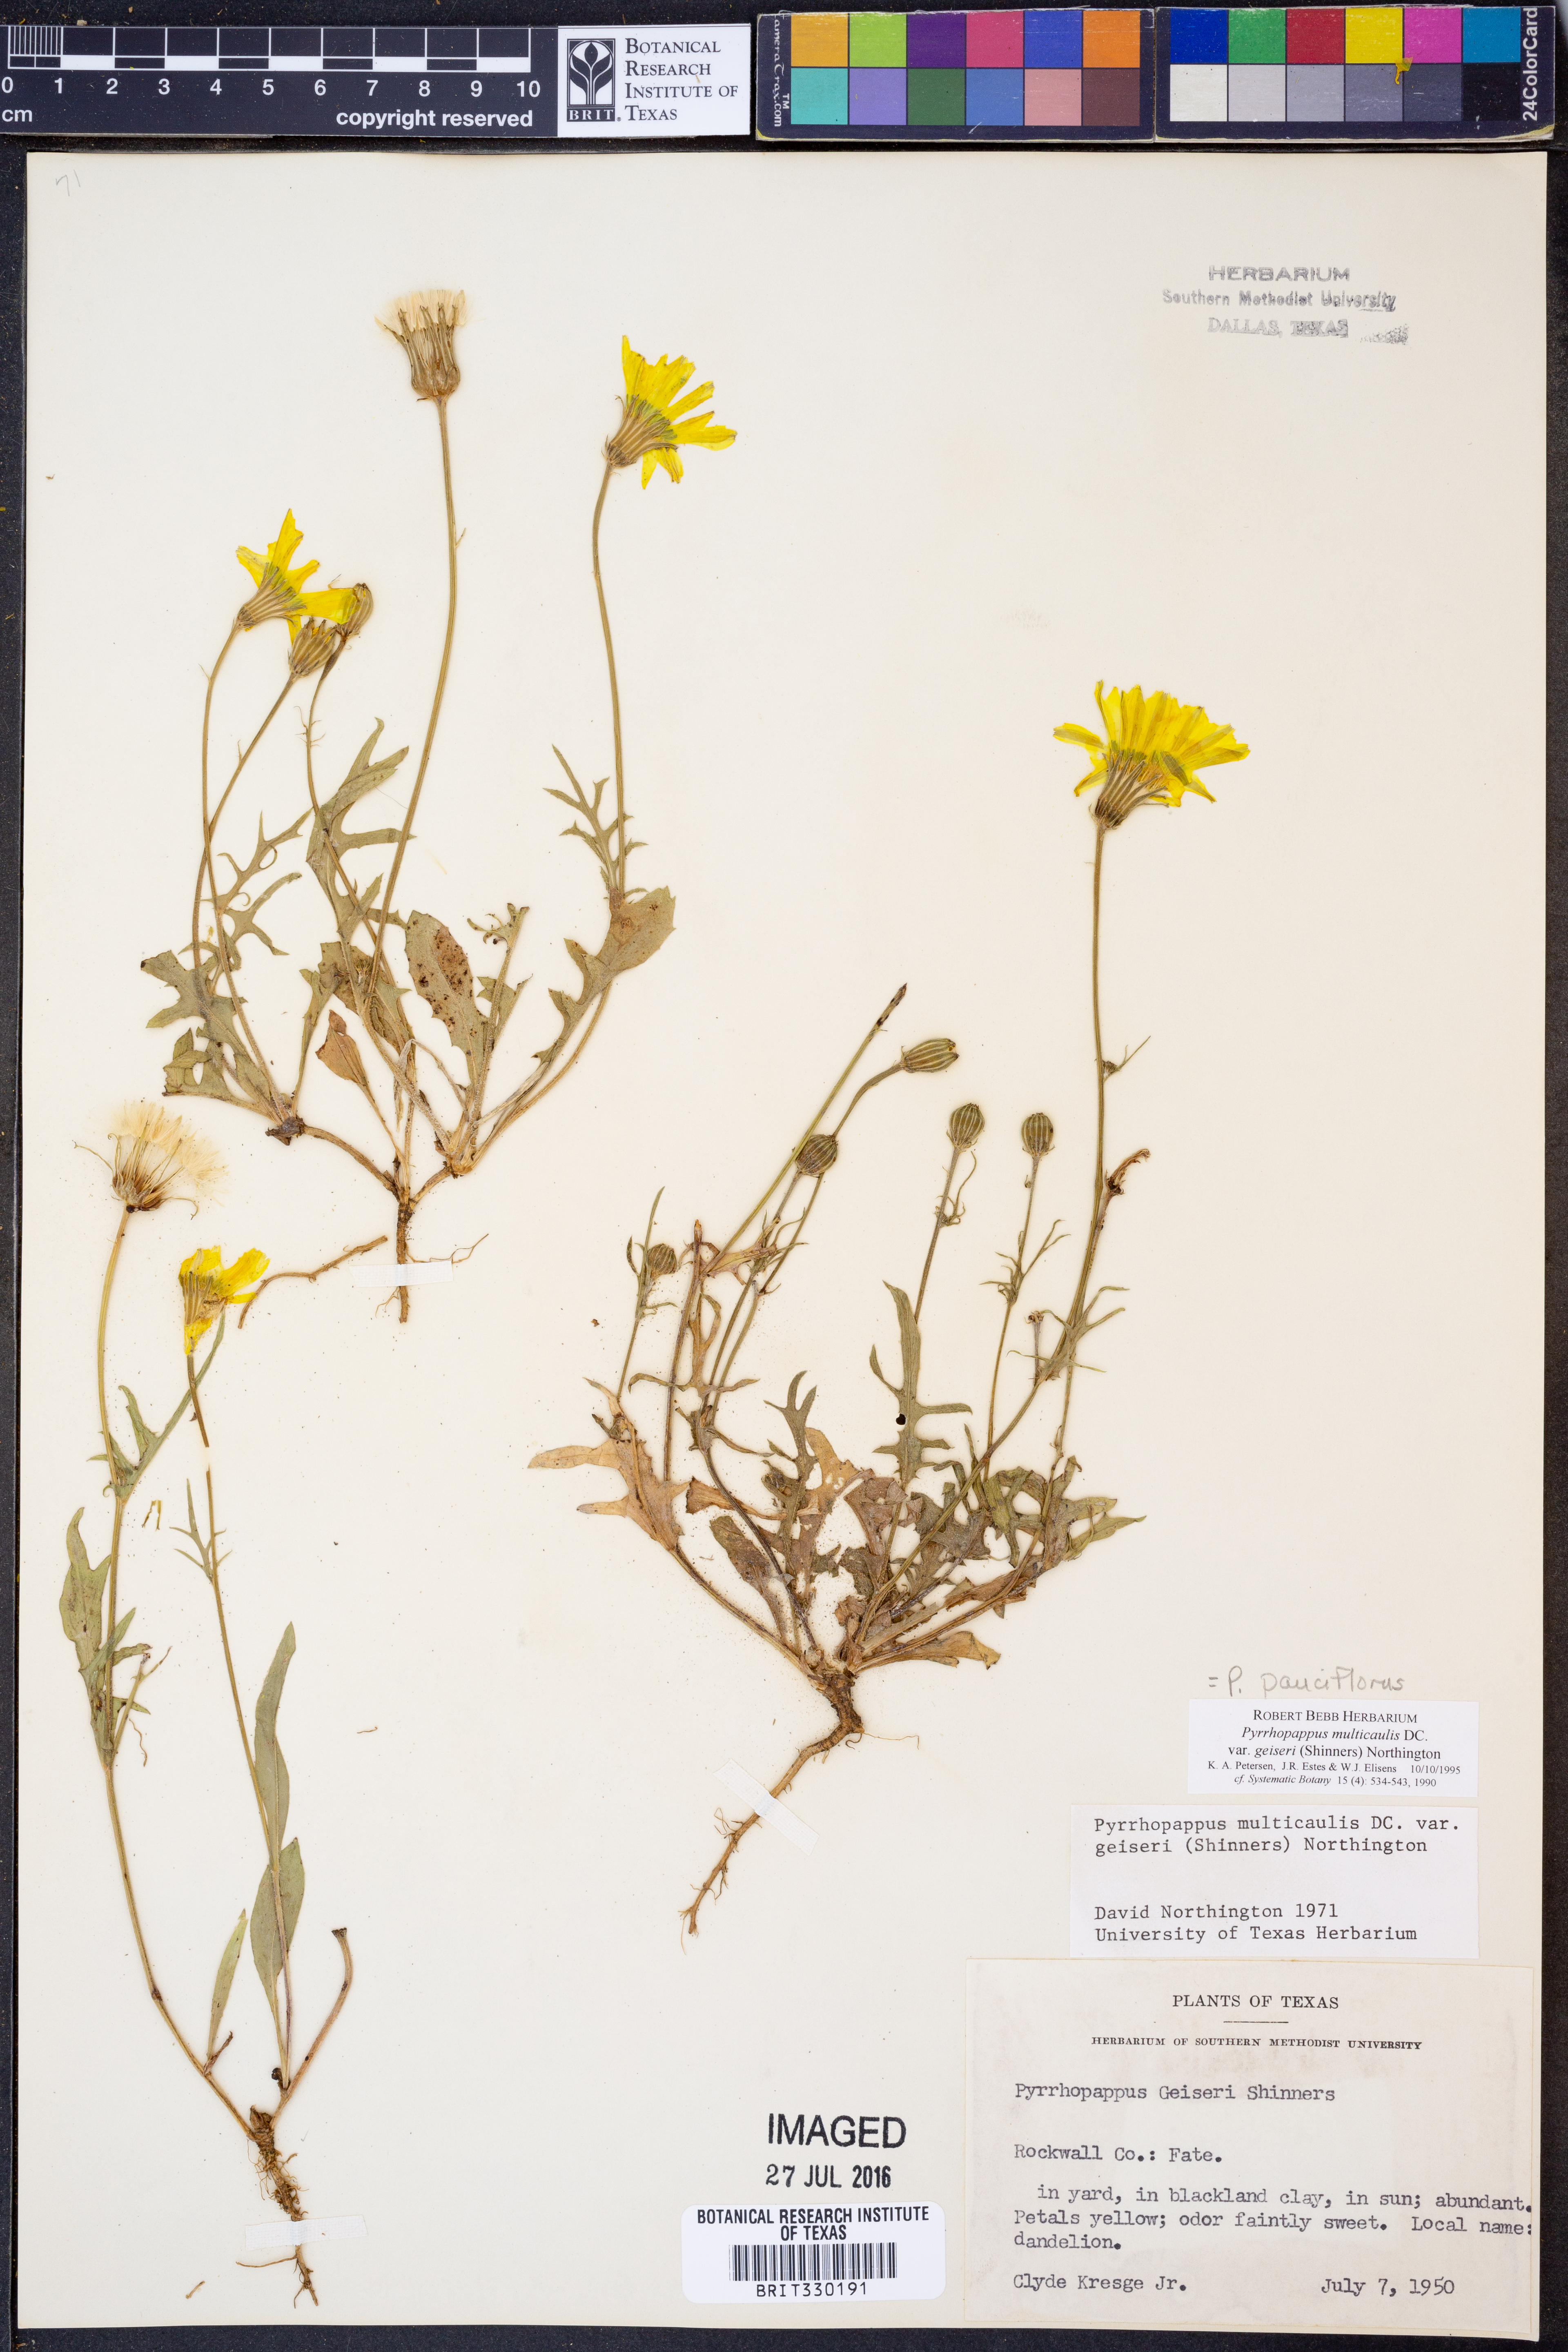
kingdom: Plantae
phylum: Tracheophyta
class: Magnoliopsida
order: Asterales
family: Asteraceae
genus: Pyrrhopappus
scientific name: Pyrrhopappus pauciflorus
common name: Texas false dandelion
